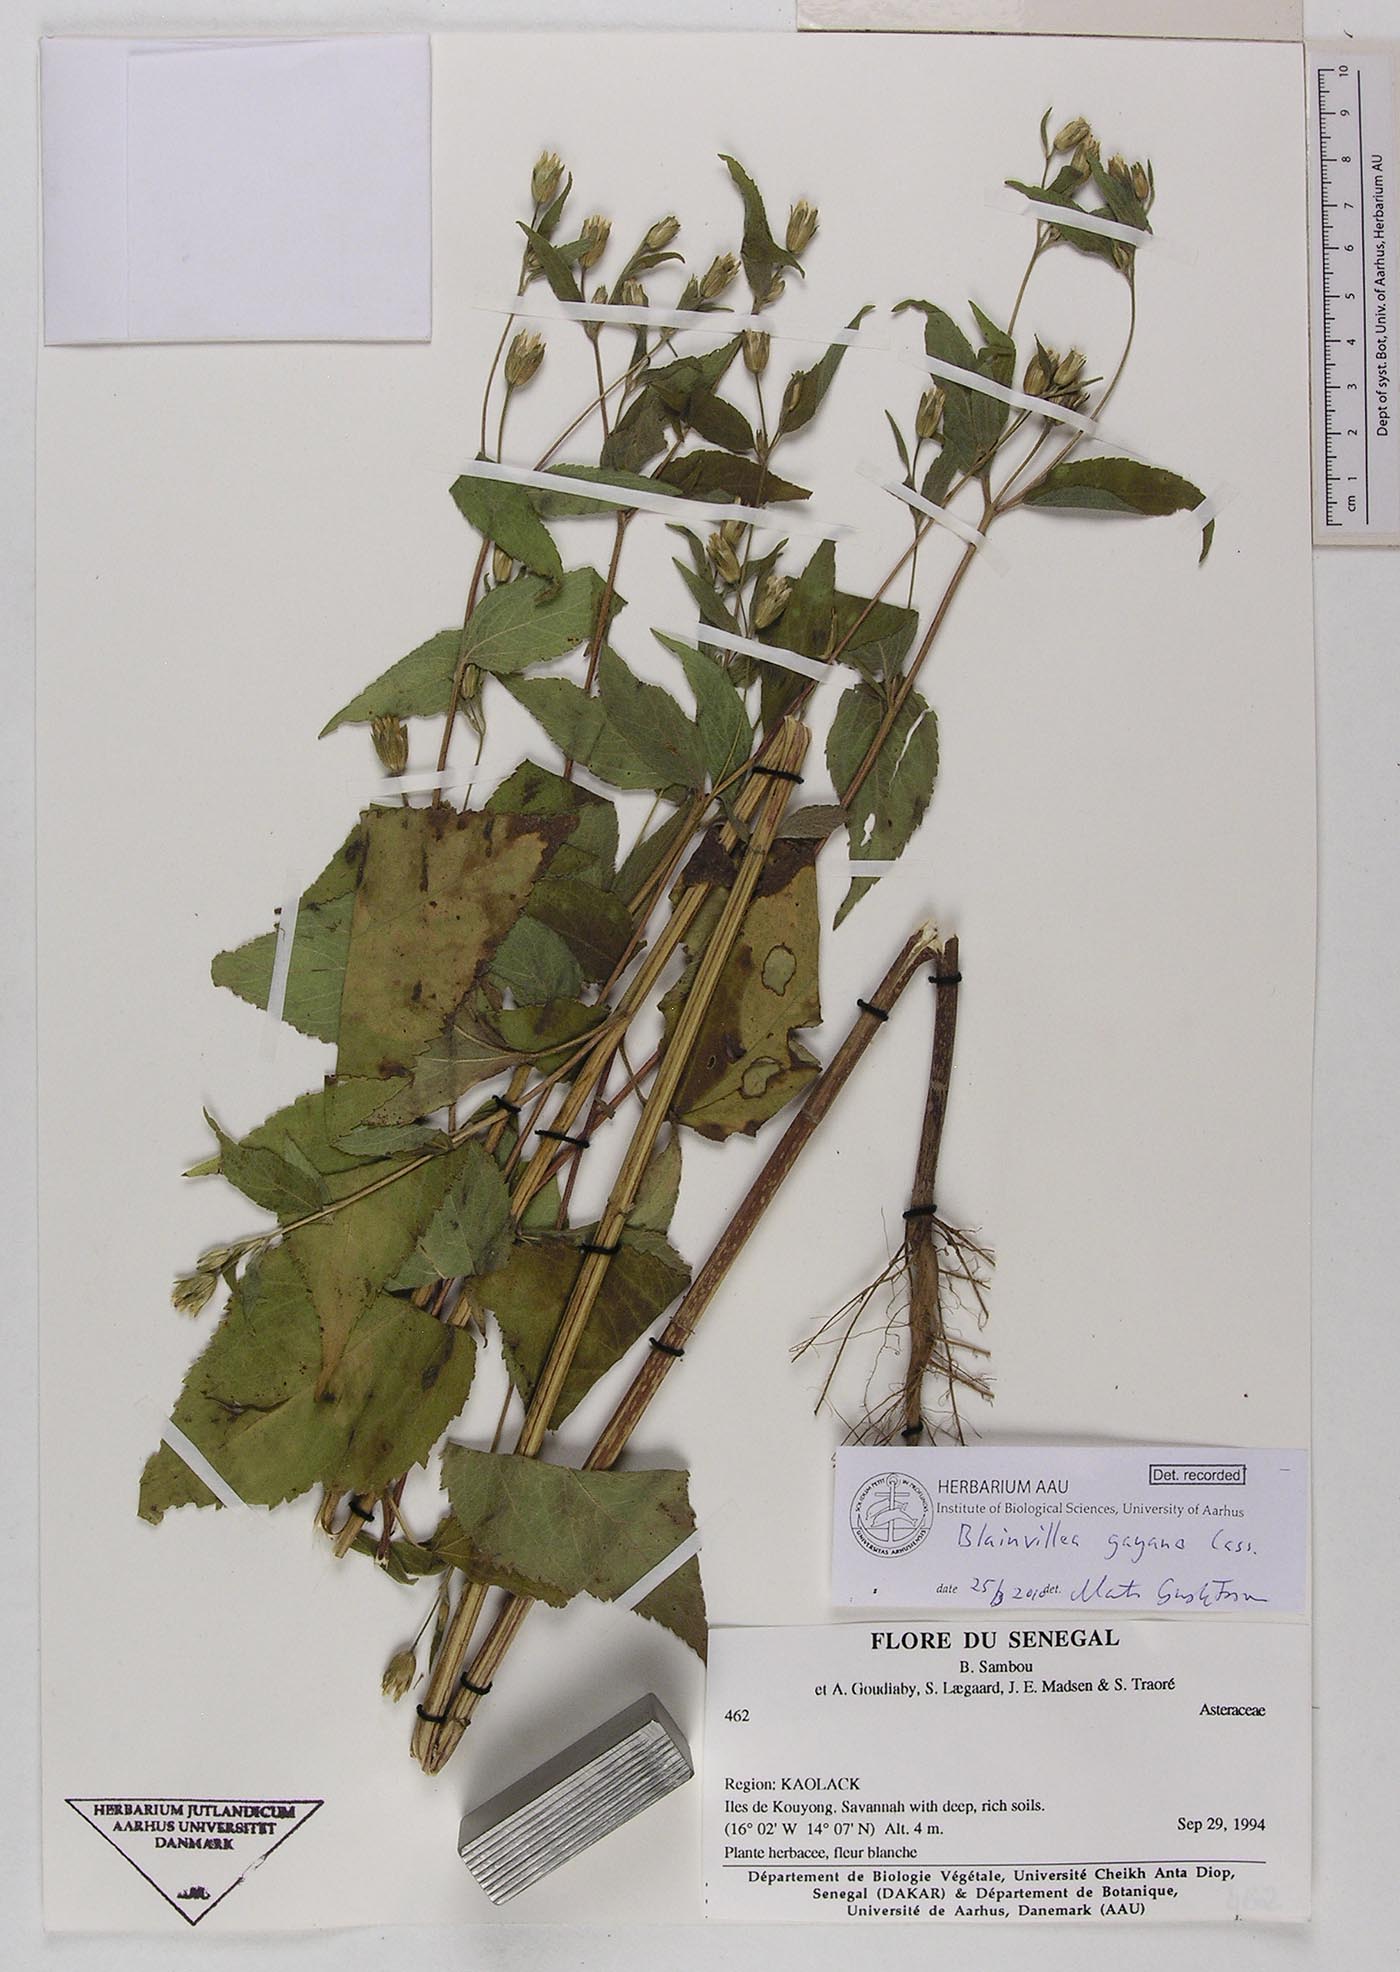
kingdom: Plantae
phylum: Tracheophyta
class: Magnoliopsida
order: Asterales
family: Asteraceae
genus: Blainvillea
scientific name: Blainvillea gayana
